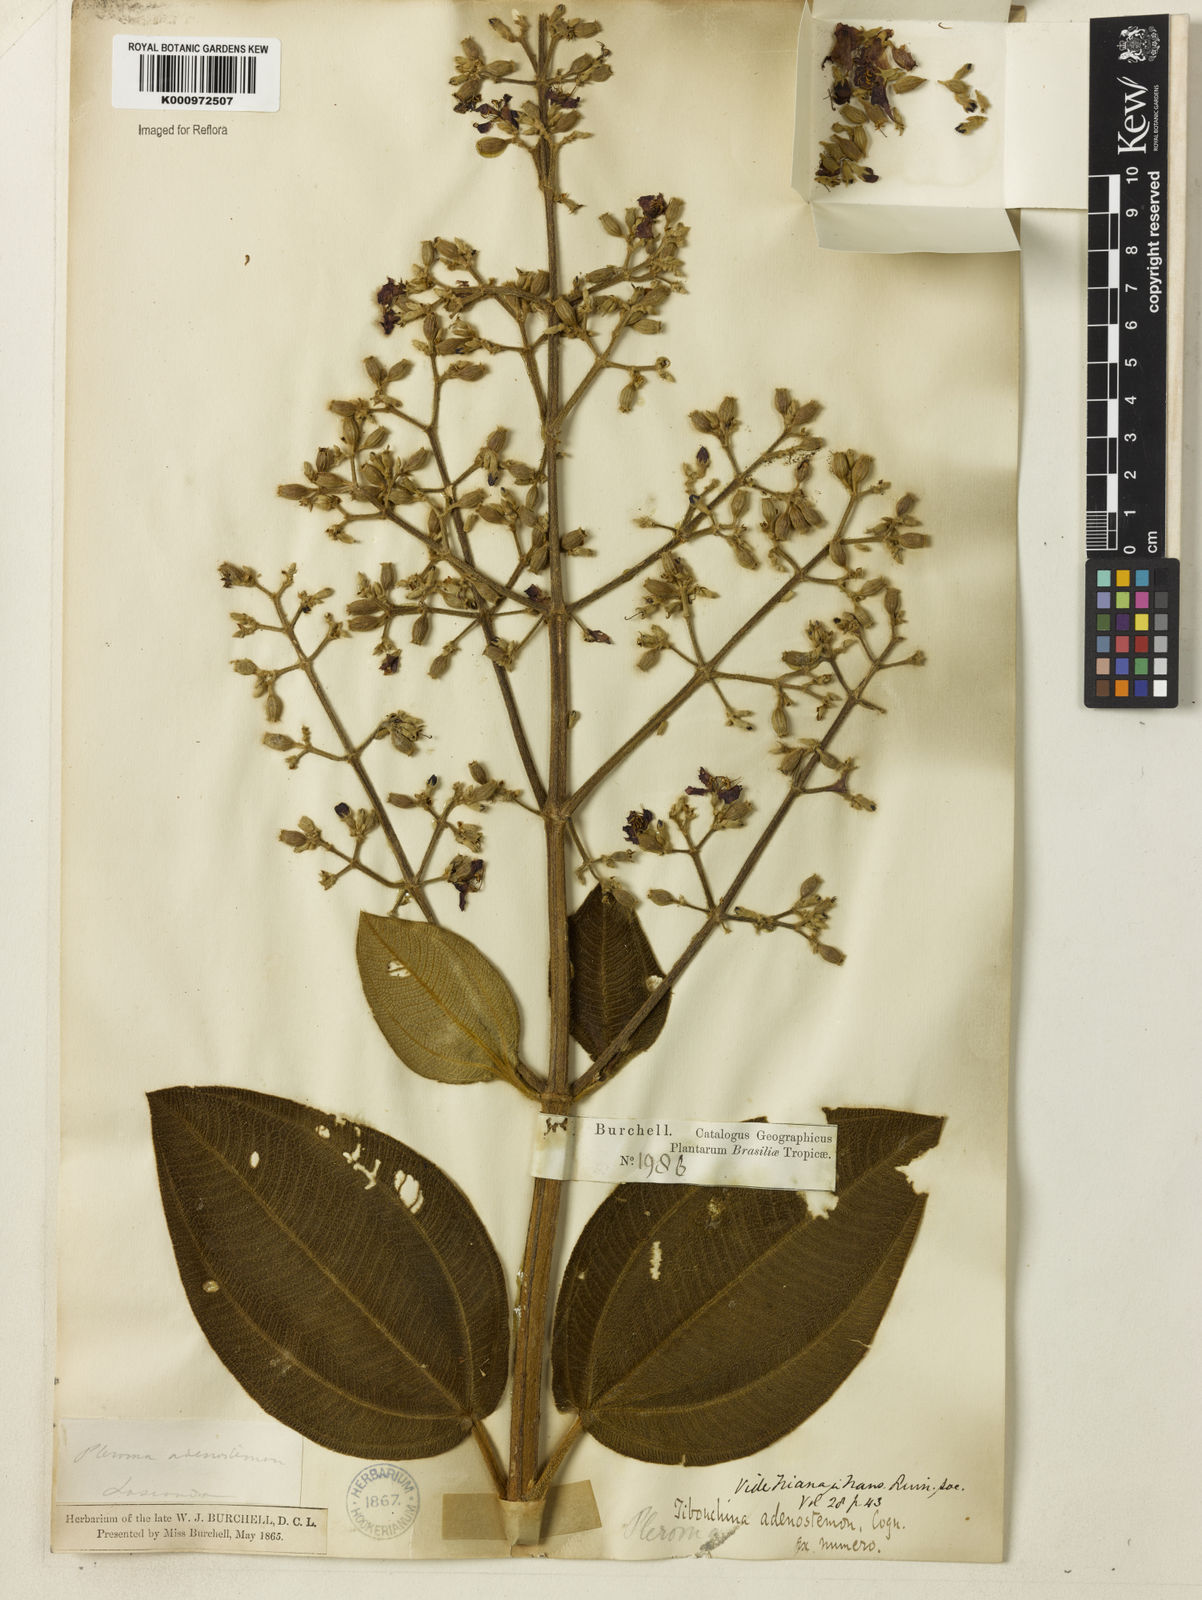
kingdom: Plantae
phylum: Tracheophyta
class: Magnoliopsida
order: Myrtales
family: Melastomataceae
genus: Pleroma
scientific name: Pleroma heteromallum
